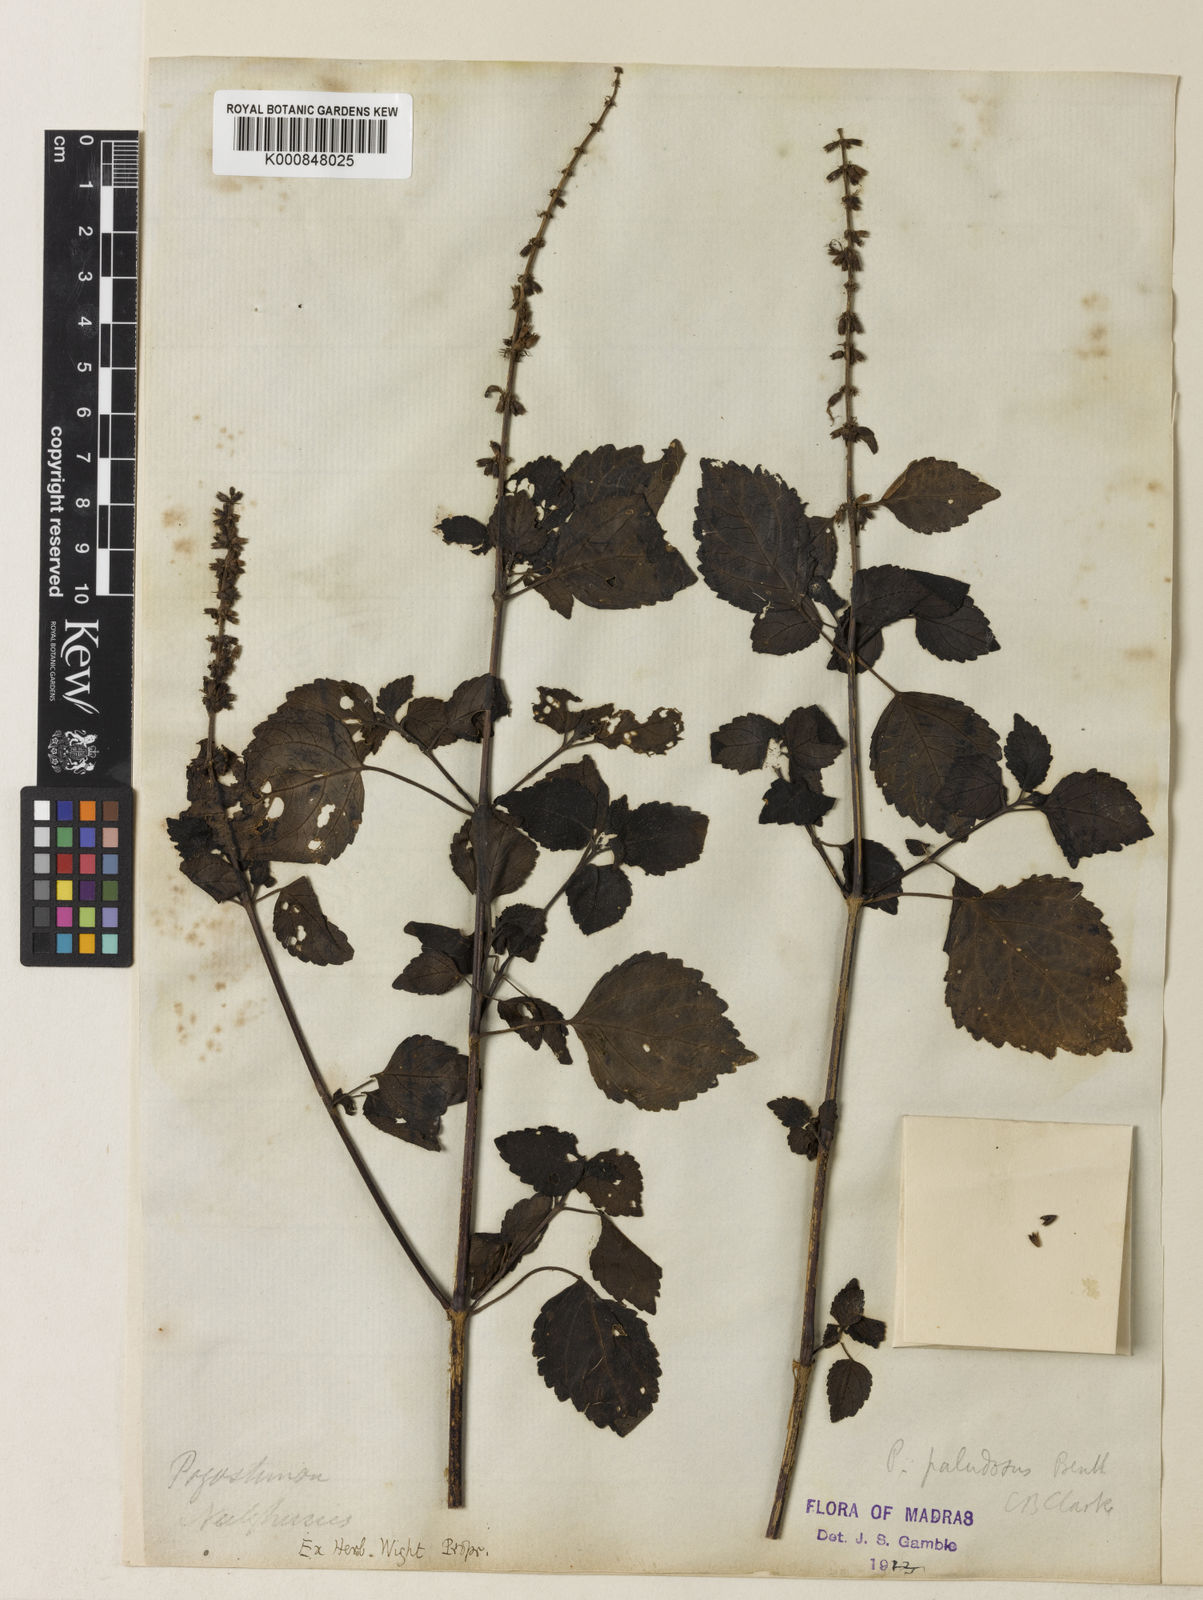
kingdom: Plantae
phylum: Tracheophyta
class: Magnoliopsida
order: Lamiales
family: Lamiaceae
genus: Pogostemon
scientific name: Pogostemon paludosus
